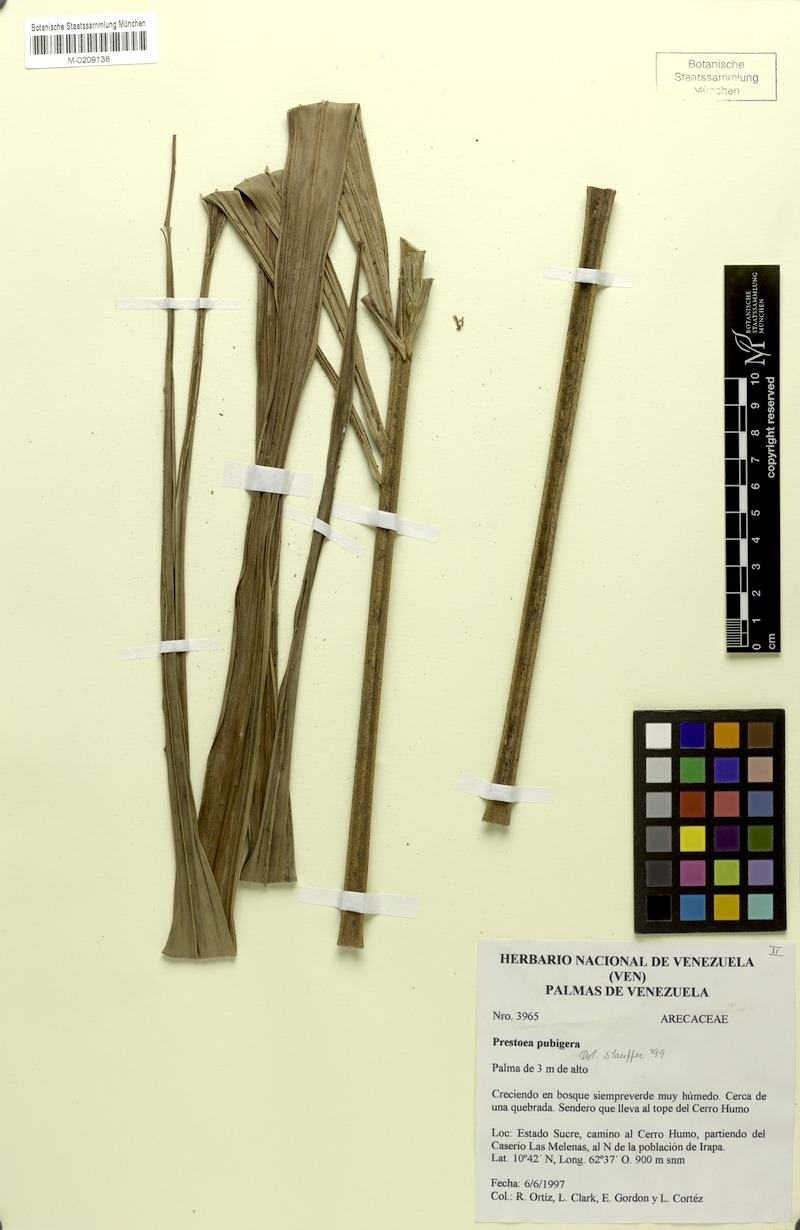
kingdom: Plantae
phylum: Tracheophyta
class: Liliopsida
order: Arecales
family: Arecaceae
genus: Prestoea
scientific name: Prestoea pubigera
